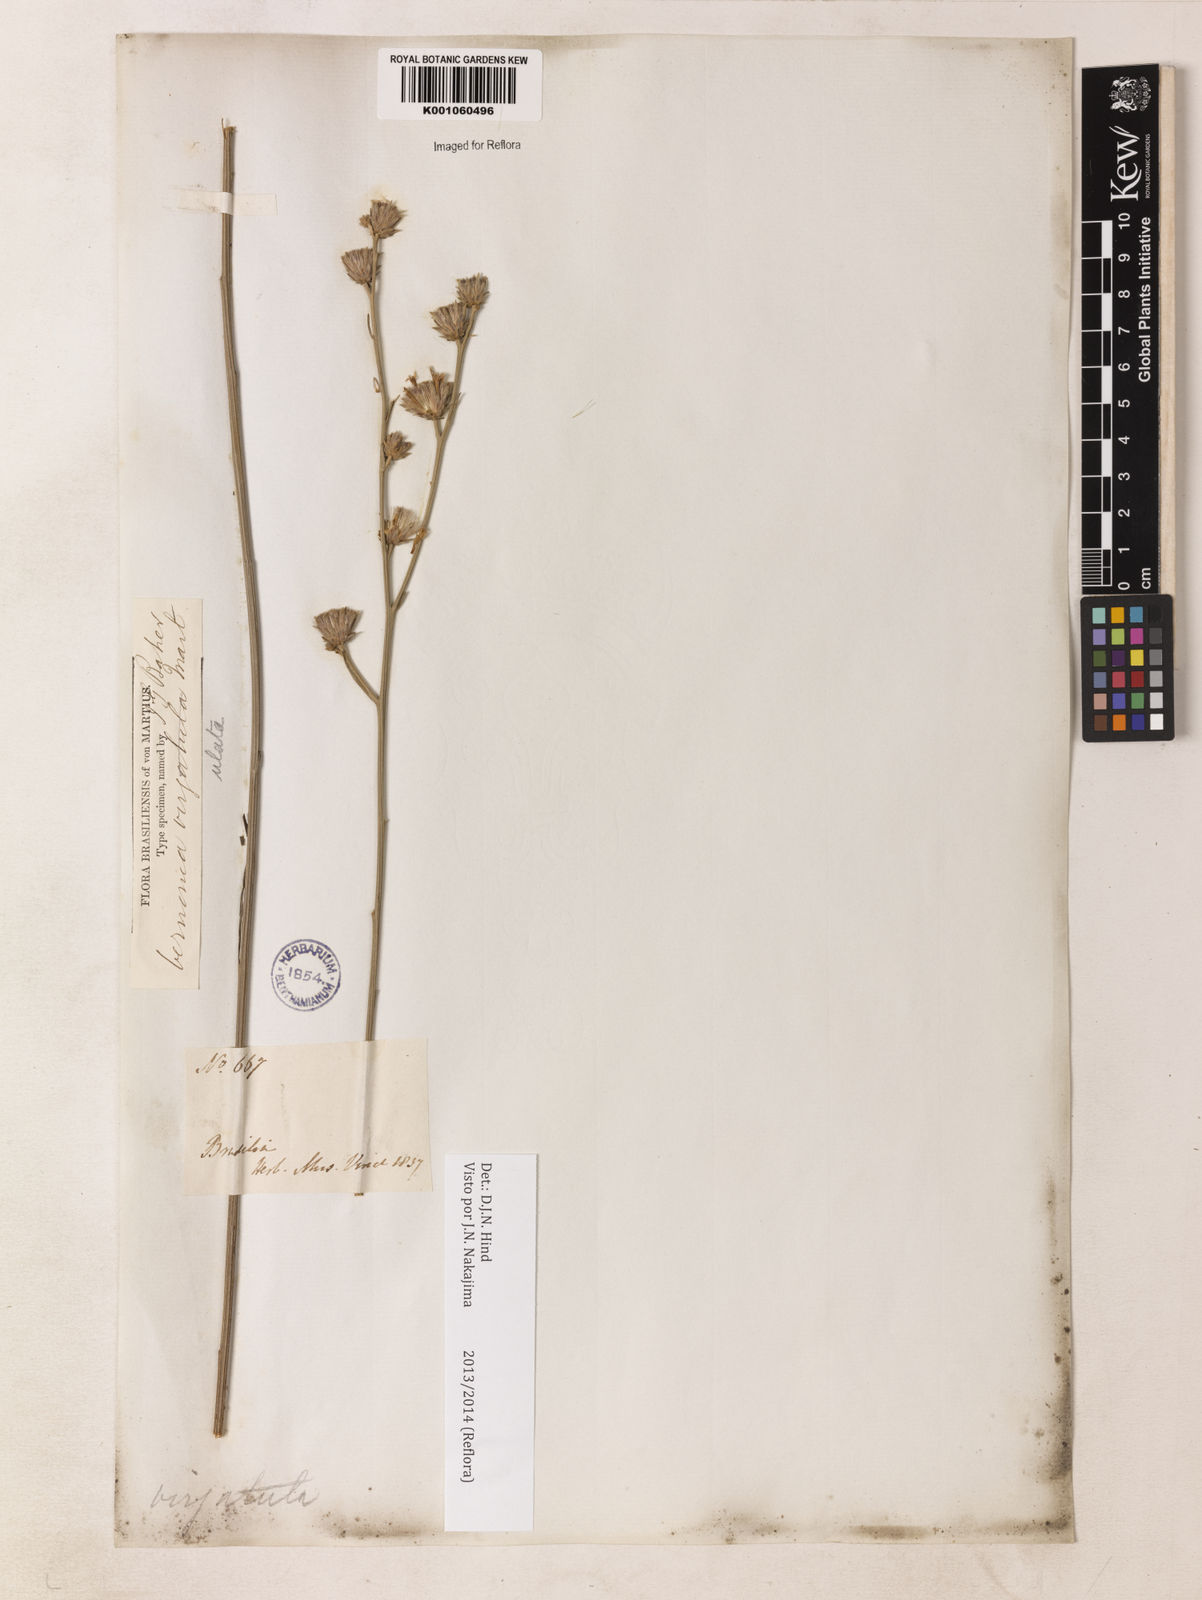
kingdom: Plantae
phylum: Tracheophyta
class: Magnoliopsida
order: Asterales
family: Asteraceae
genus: Lessingianthus
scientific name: Lessingianthus virgulatus
